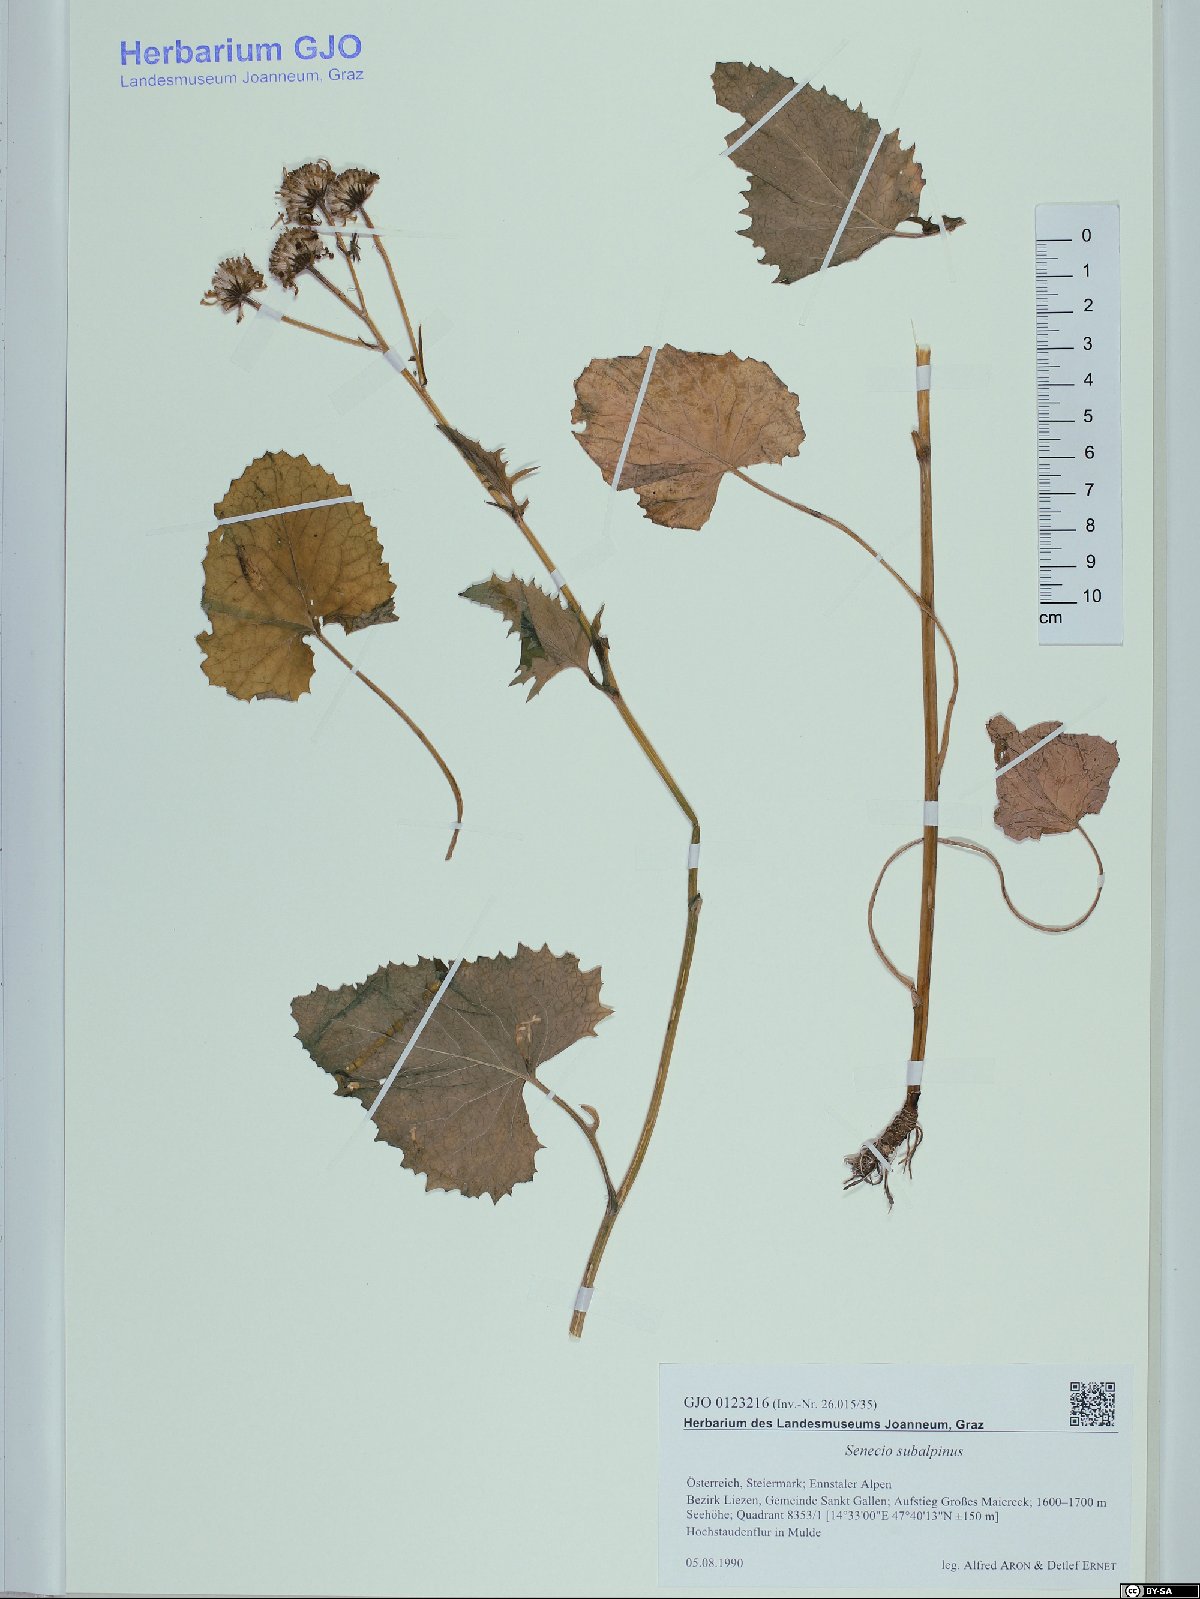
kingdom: Plantae
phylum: Tracheophyta
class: Magnoliopsida
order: Asterales
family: Asteraceae
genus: Jacobaea
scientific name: Jacobaea subalpina
